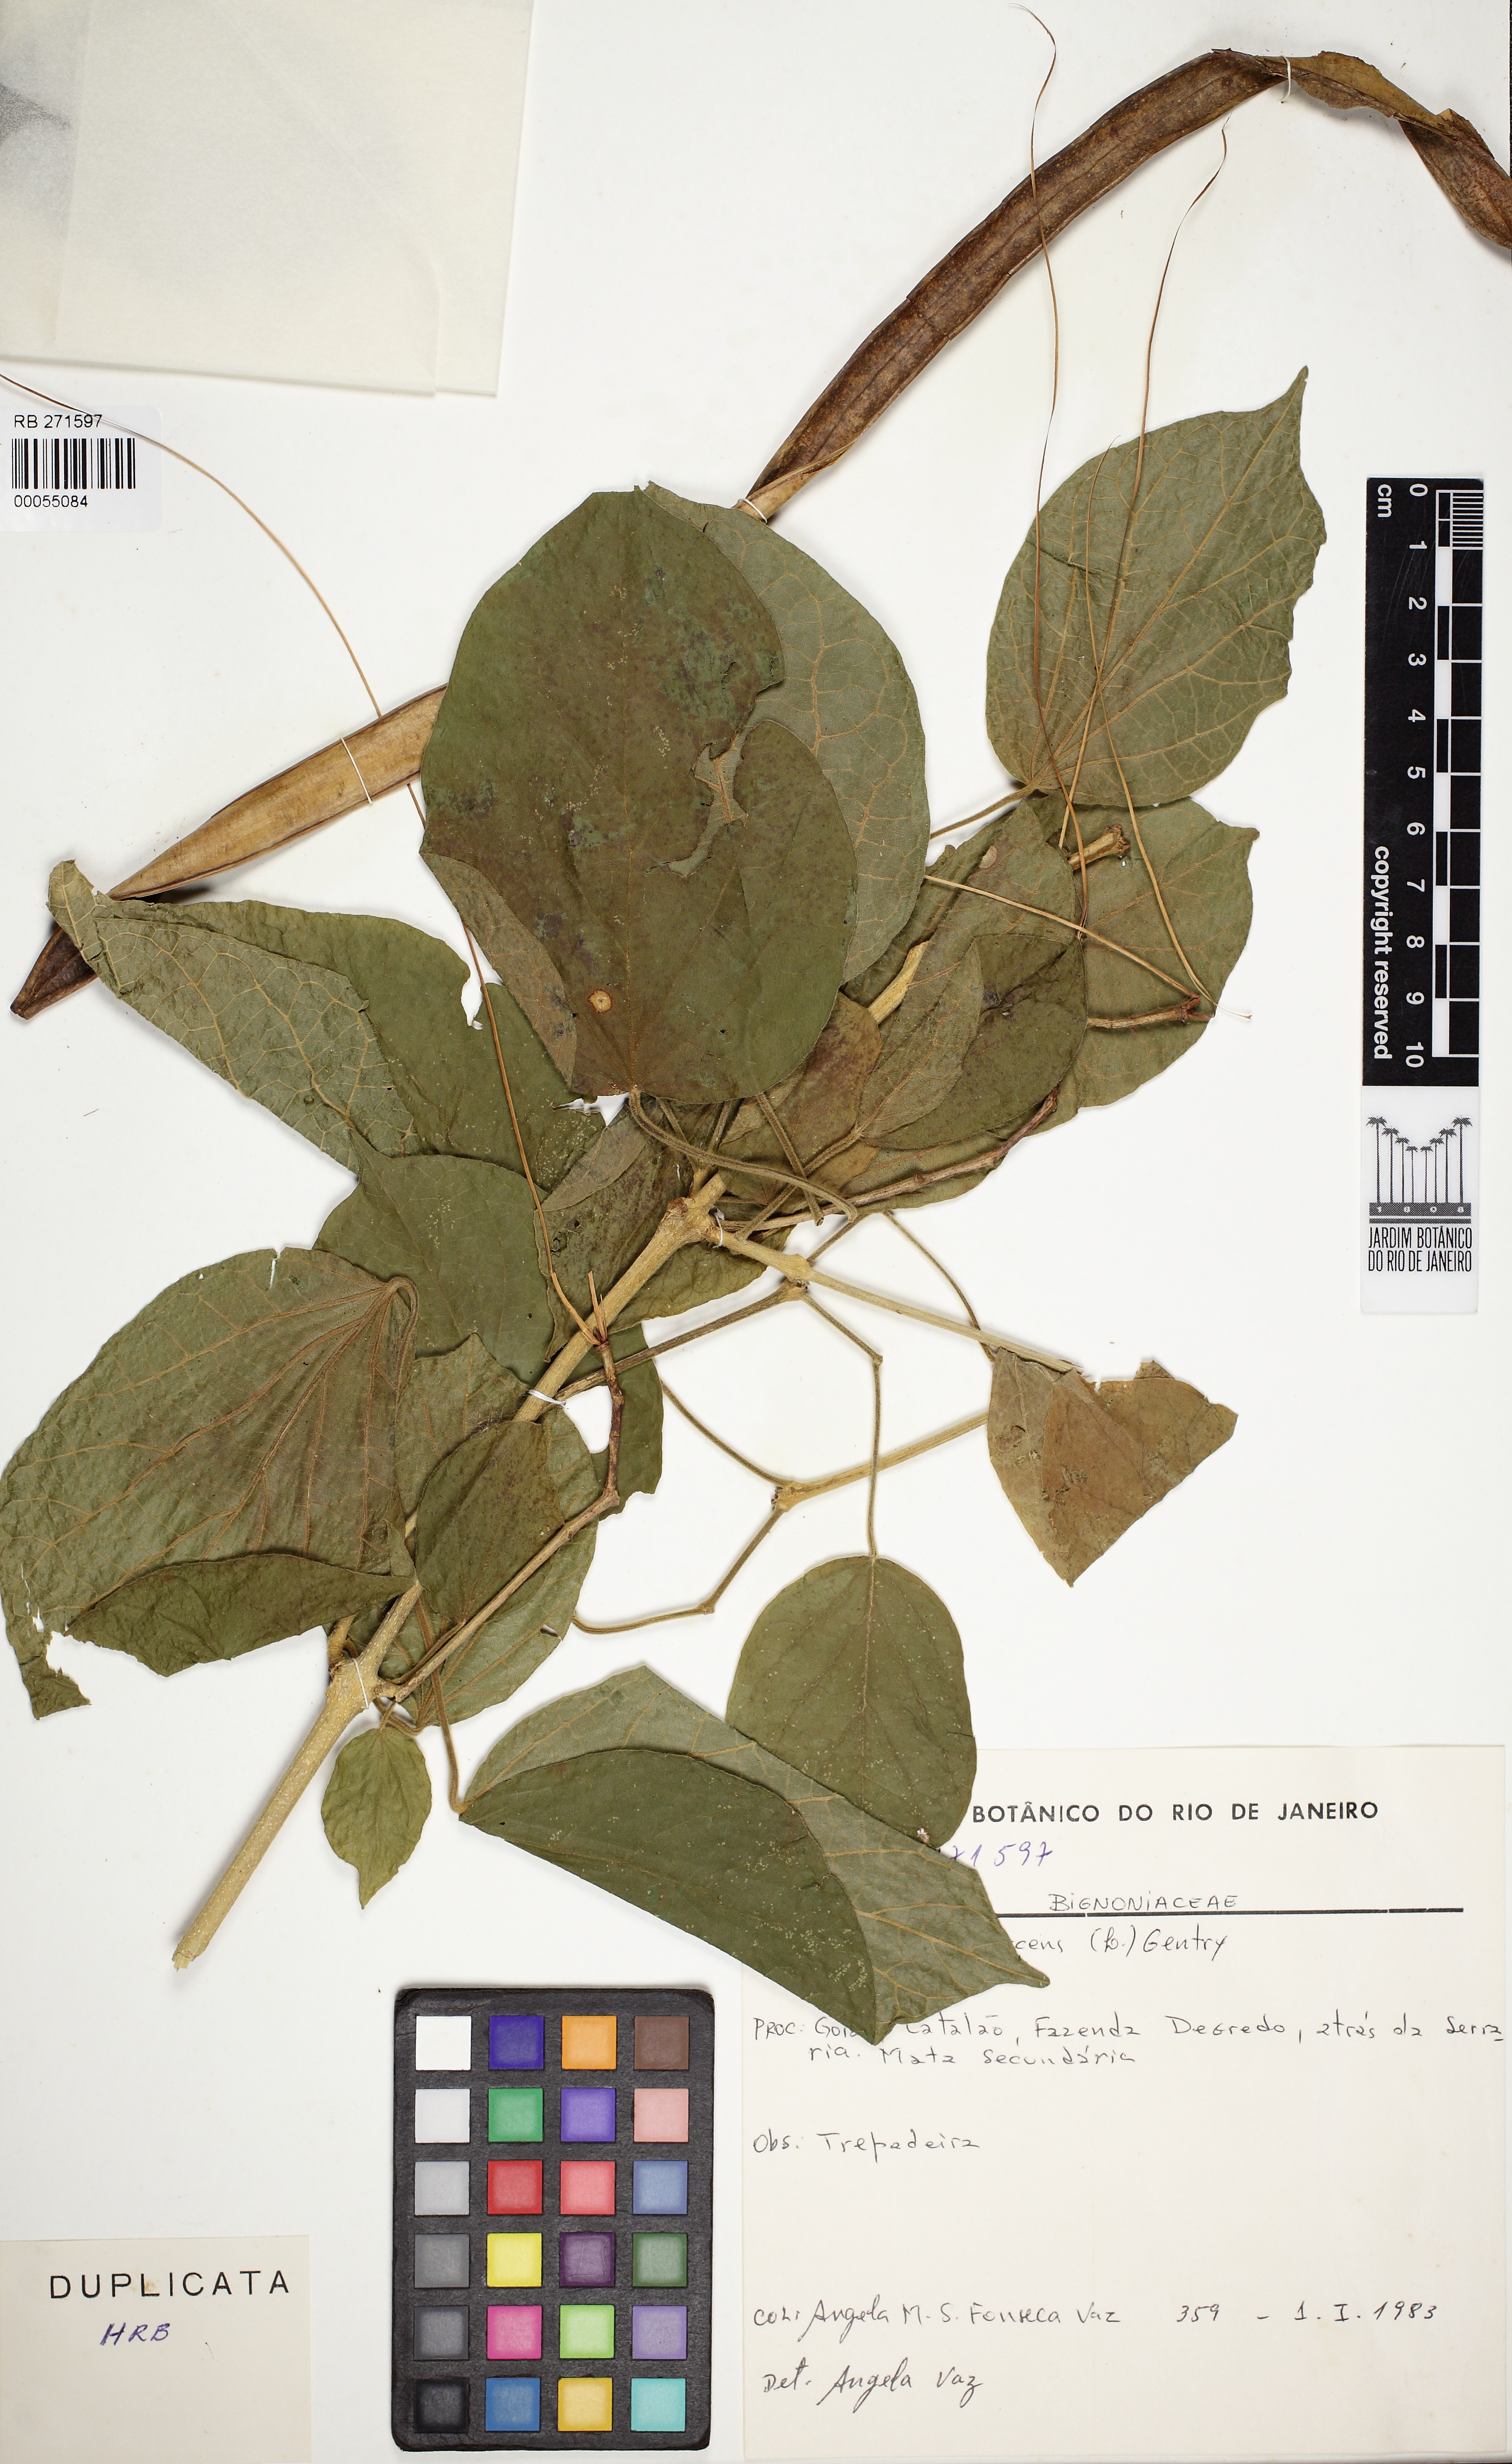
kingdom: Plantae
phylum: Tracheophyta
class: Magnoliopsida
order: Lamiales
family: Bignoniaceae
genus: Fridericia
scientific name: Fridericia poeppigii
